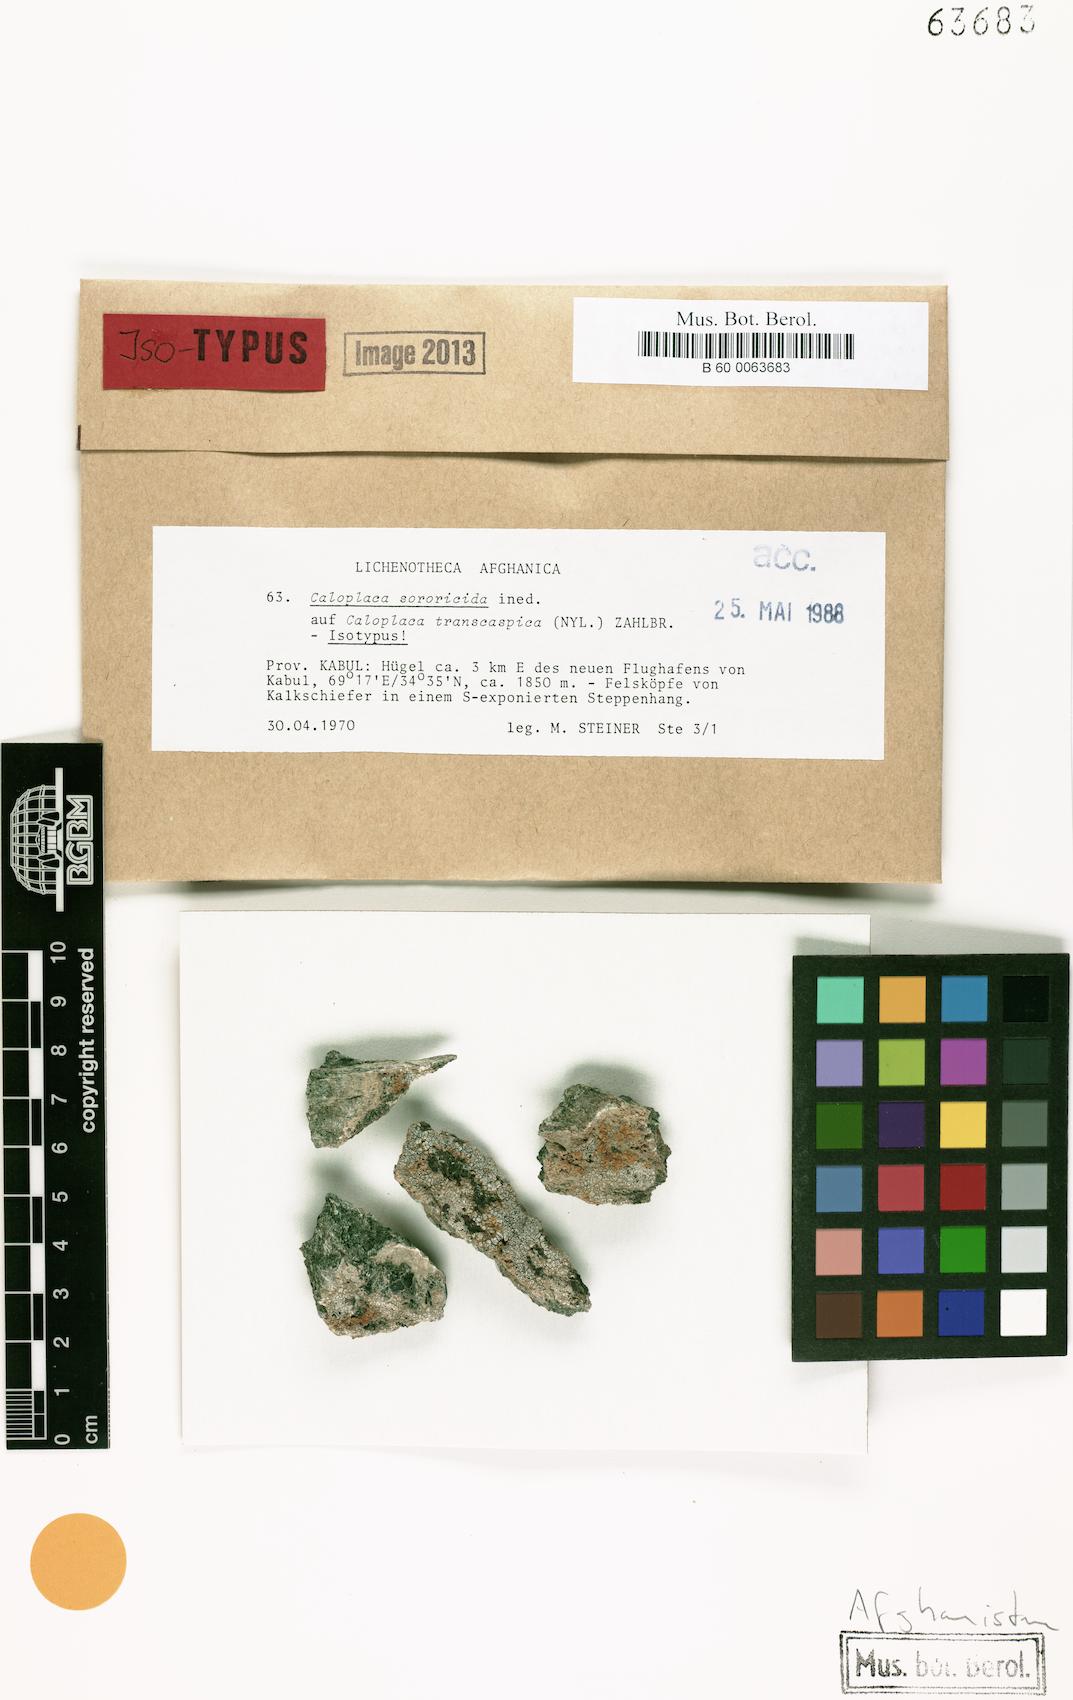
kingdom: Fungi
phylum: Ascomycota
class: Lecanoromycetes
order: Teloschistales
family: Teloschistaceae
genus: Variospora
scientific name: Variospora sororicida
